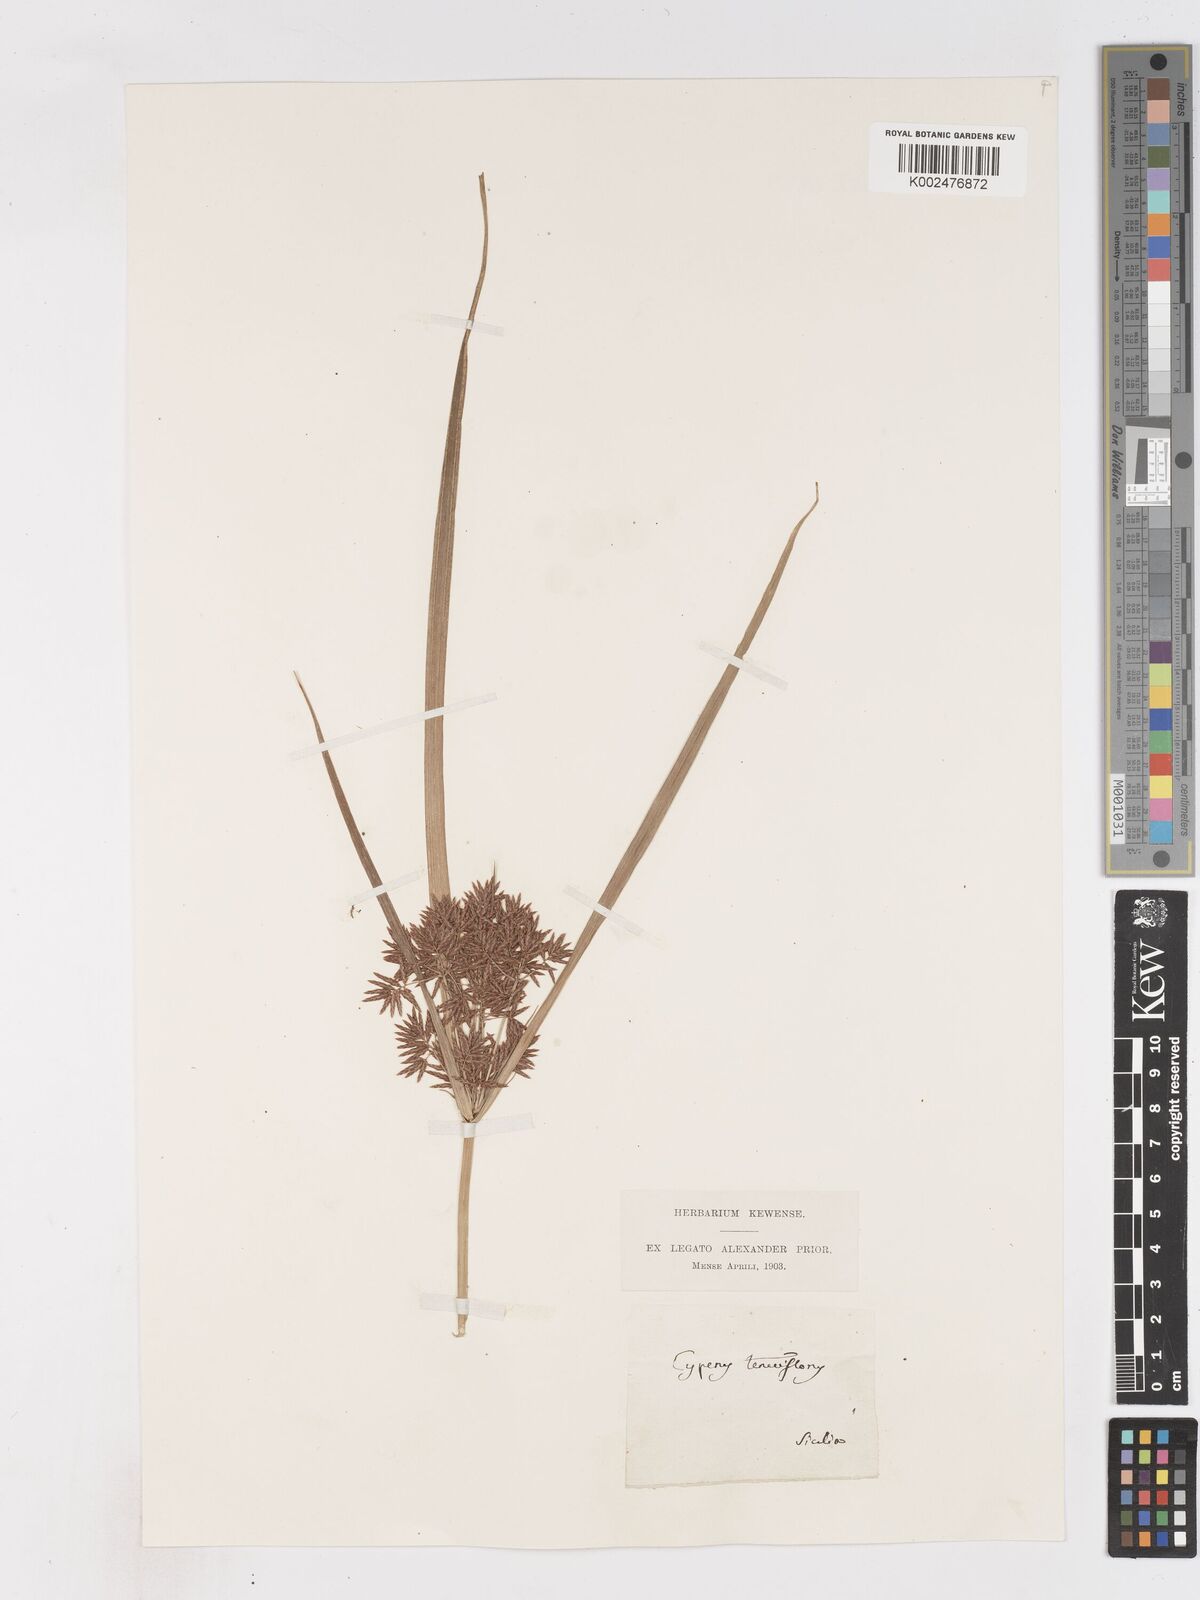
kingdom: Plantae
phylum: Tracheophyta
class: Liliopsida
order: Poales
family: Cyperaceae
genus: Cyperus
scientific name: Cyperus longus
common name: Galingale
